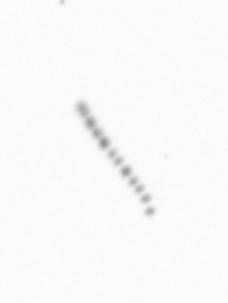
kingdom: Chromista
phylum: Ochrophyta
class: Bacillariophyceae
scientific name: Bacillariophyceae
